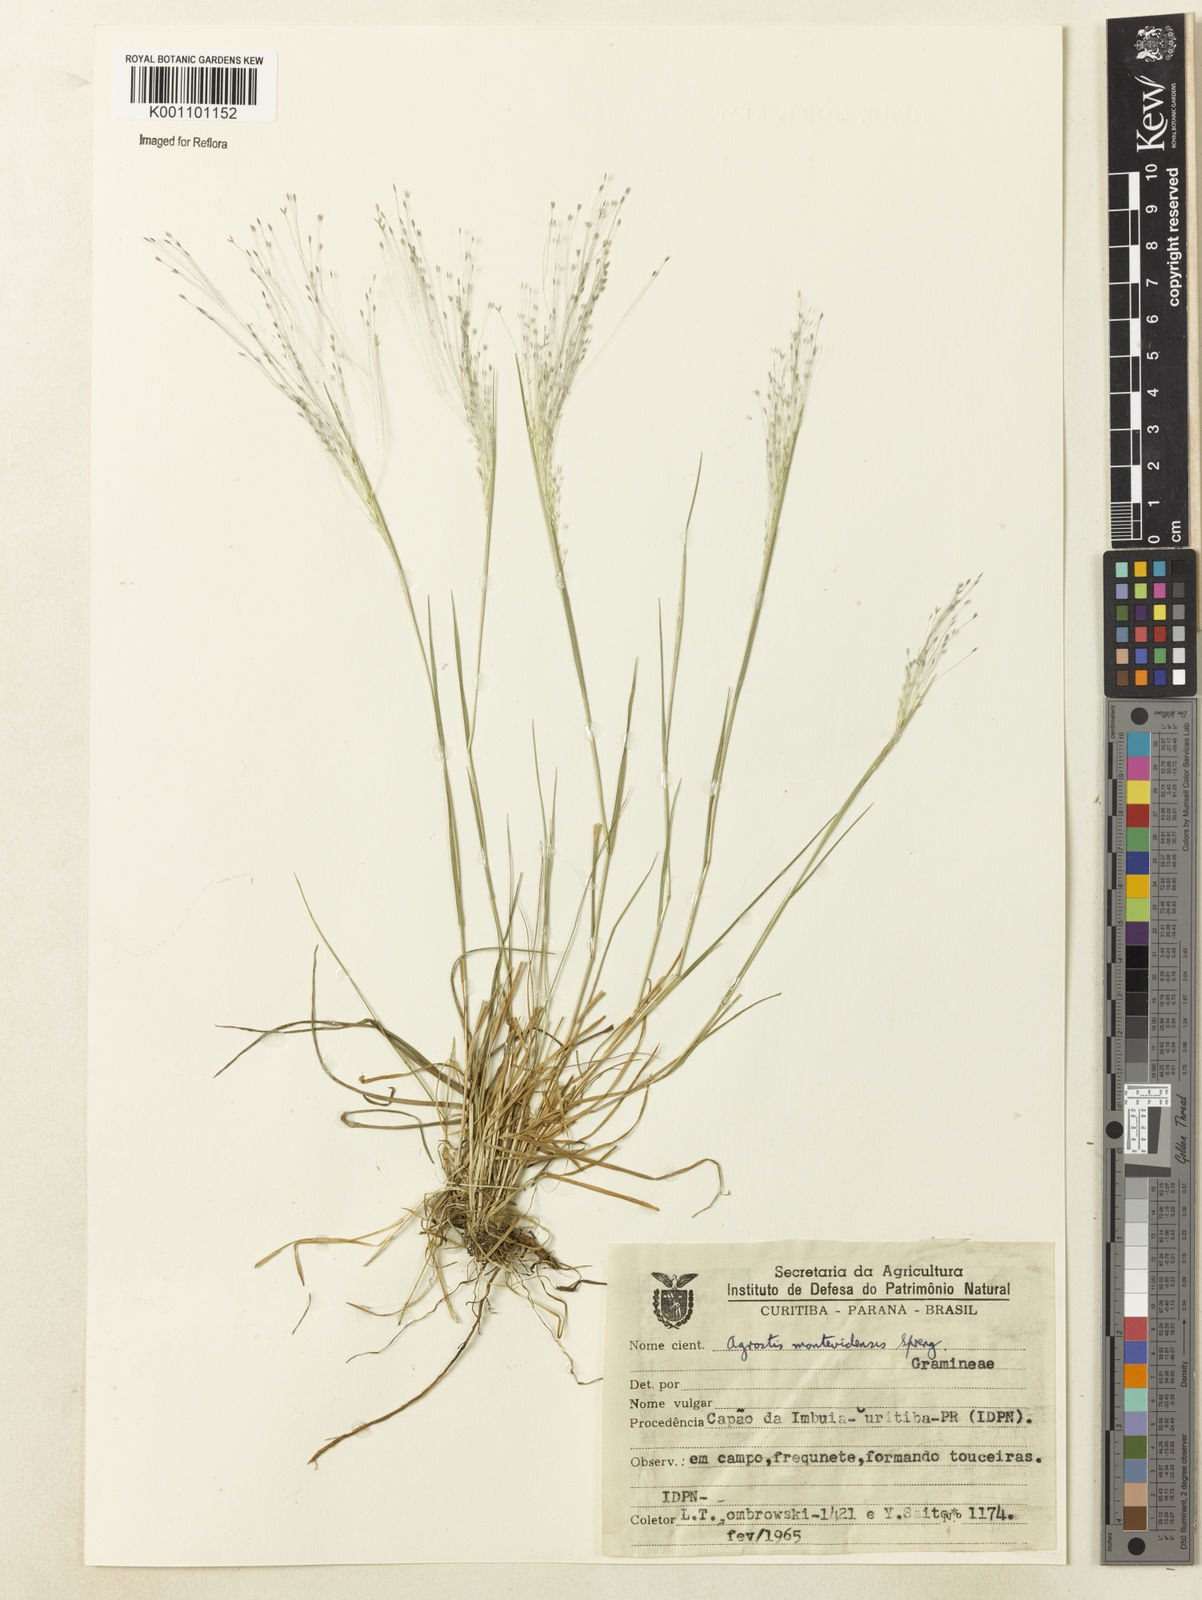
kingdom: Plantae
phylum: Tracheophyta
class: Liliopsida
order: Poales
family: Poaceae
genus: Agrostis
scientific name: Agrostis montevidensis
